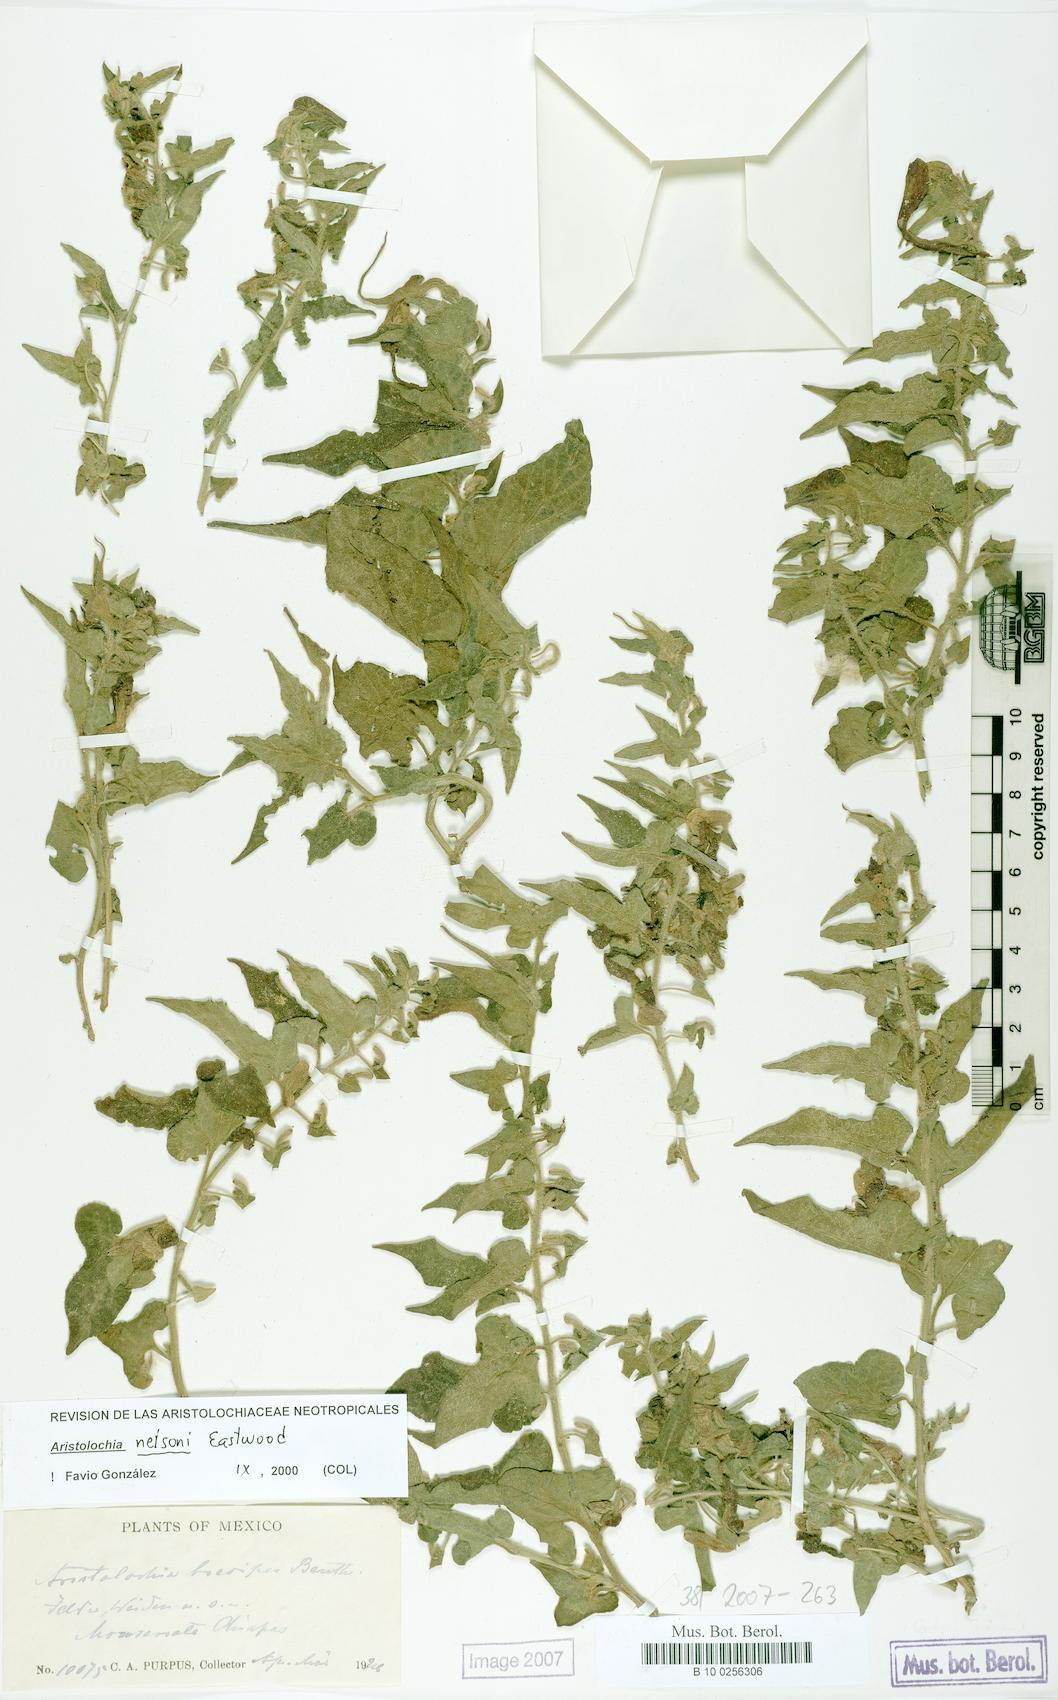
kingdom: Plantae
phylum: Tracheophyta
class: Magnoliopsida
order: Piperales
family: Aristolochiaceae
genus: Aristolochia
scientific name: Aristolochia nelsonii
